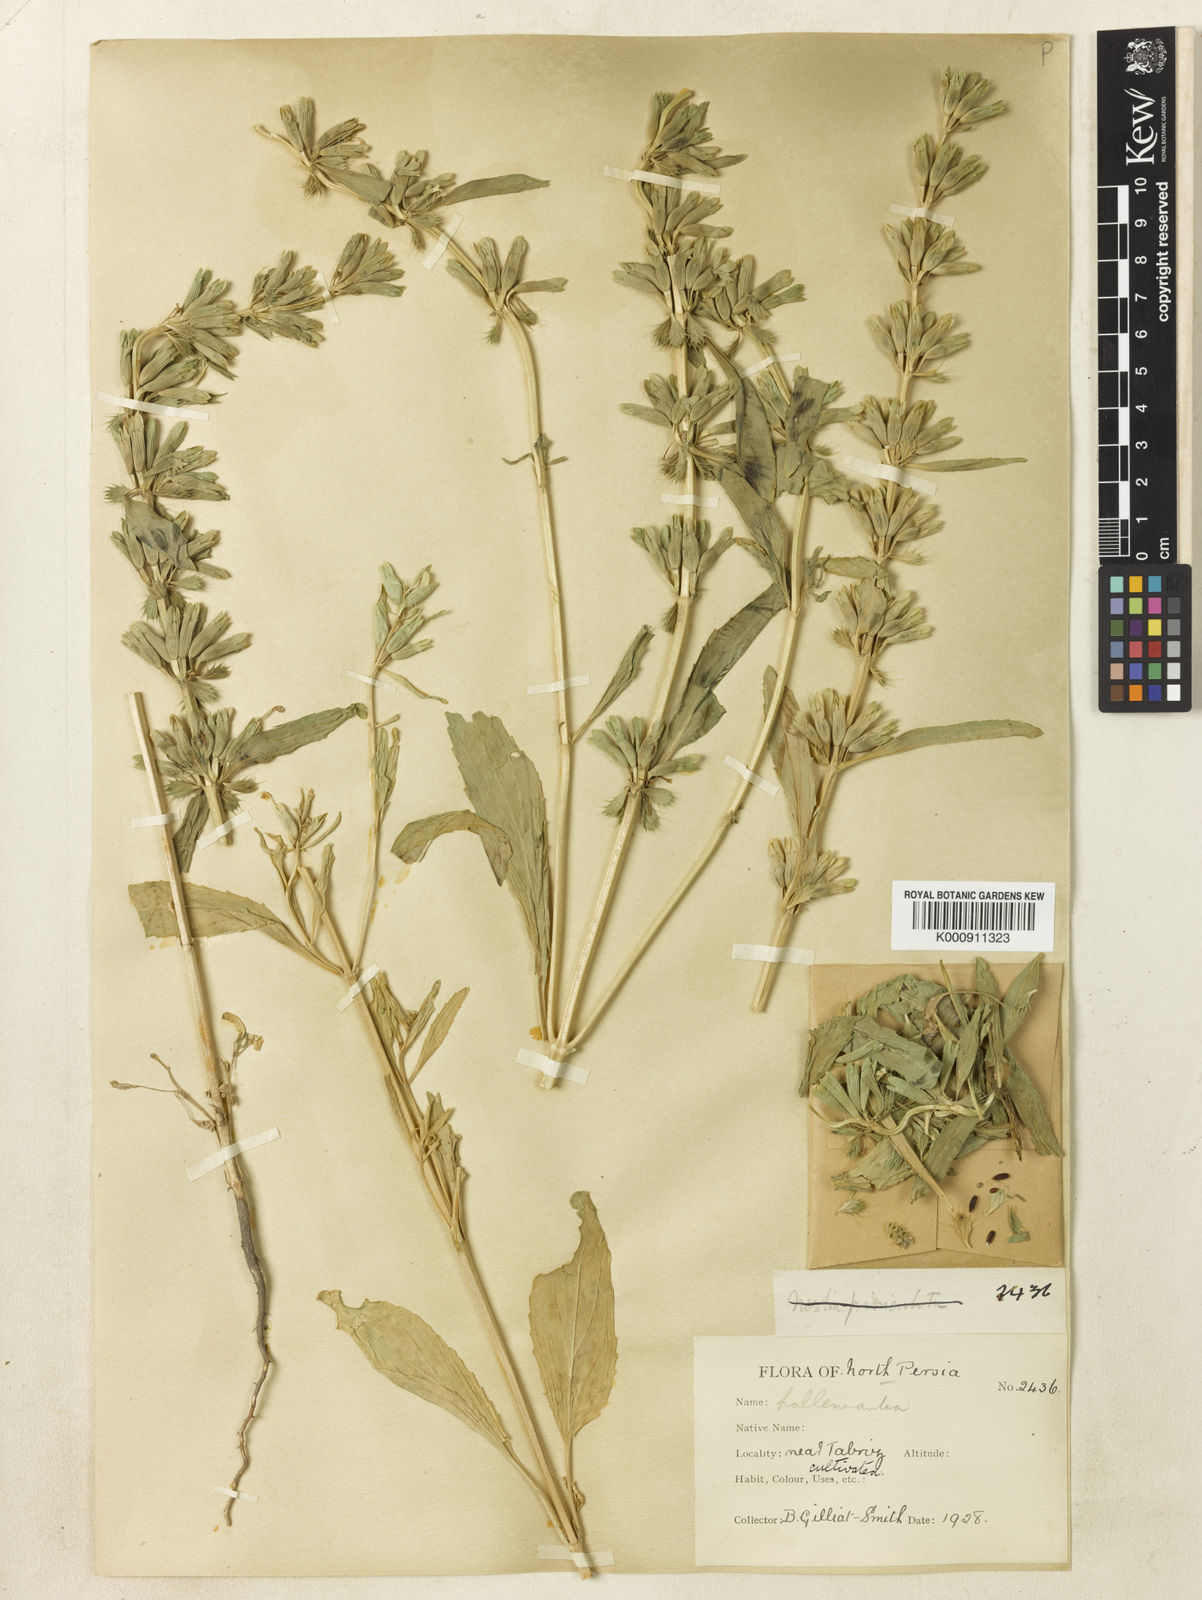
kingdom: Plantae
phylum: Tracheophyta
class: Magnoliopsida
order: Lamiales
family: Lamiaceae
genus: Lallemantia
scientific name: Lallemantia iberica
